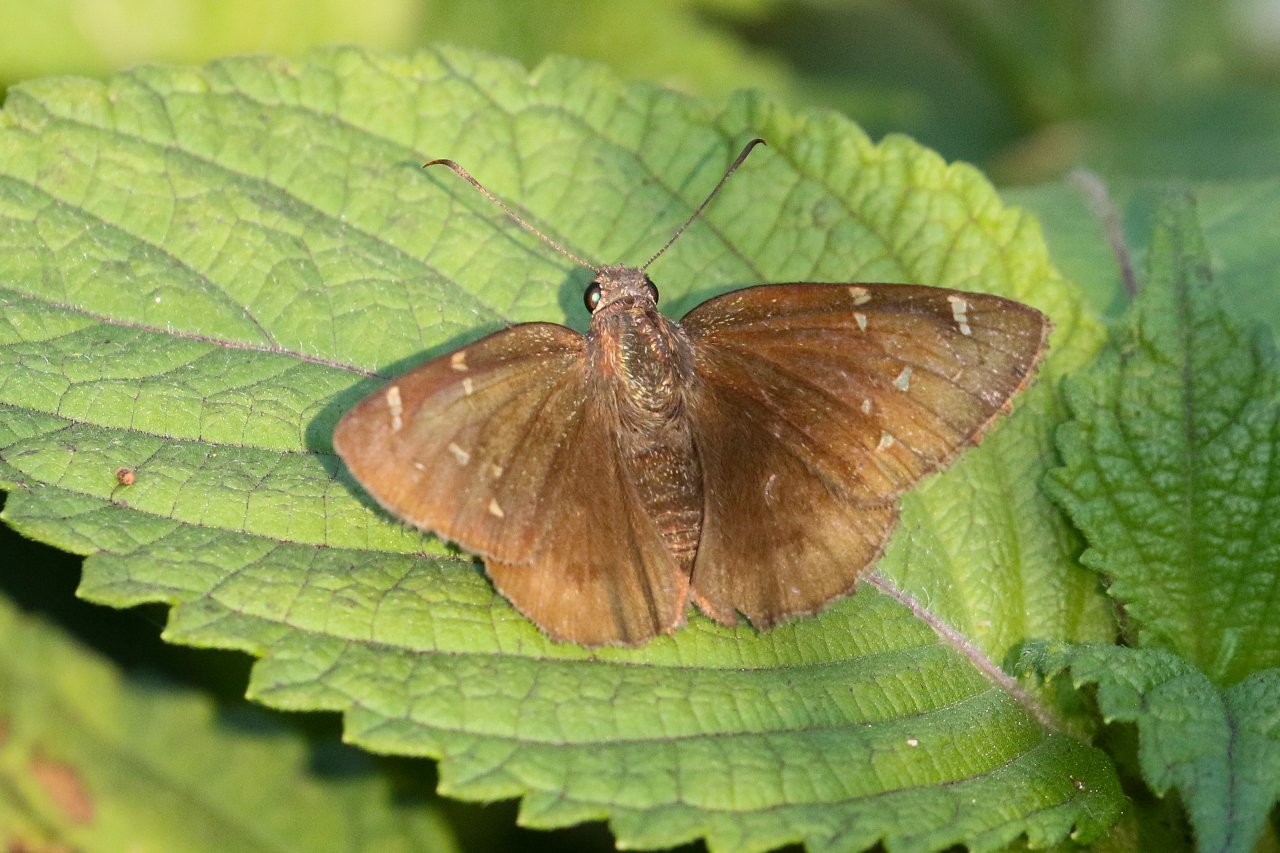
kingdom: Animalia
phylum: Arthropoda
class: Insecta
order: Lepidoptera
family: Hesperiidae
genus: Autochton
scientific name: Autochton
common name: Northern Cloudywing
